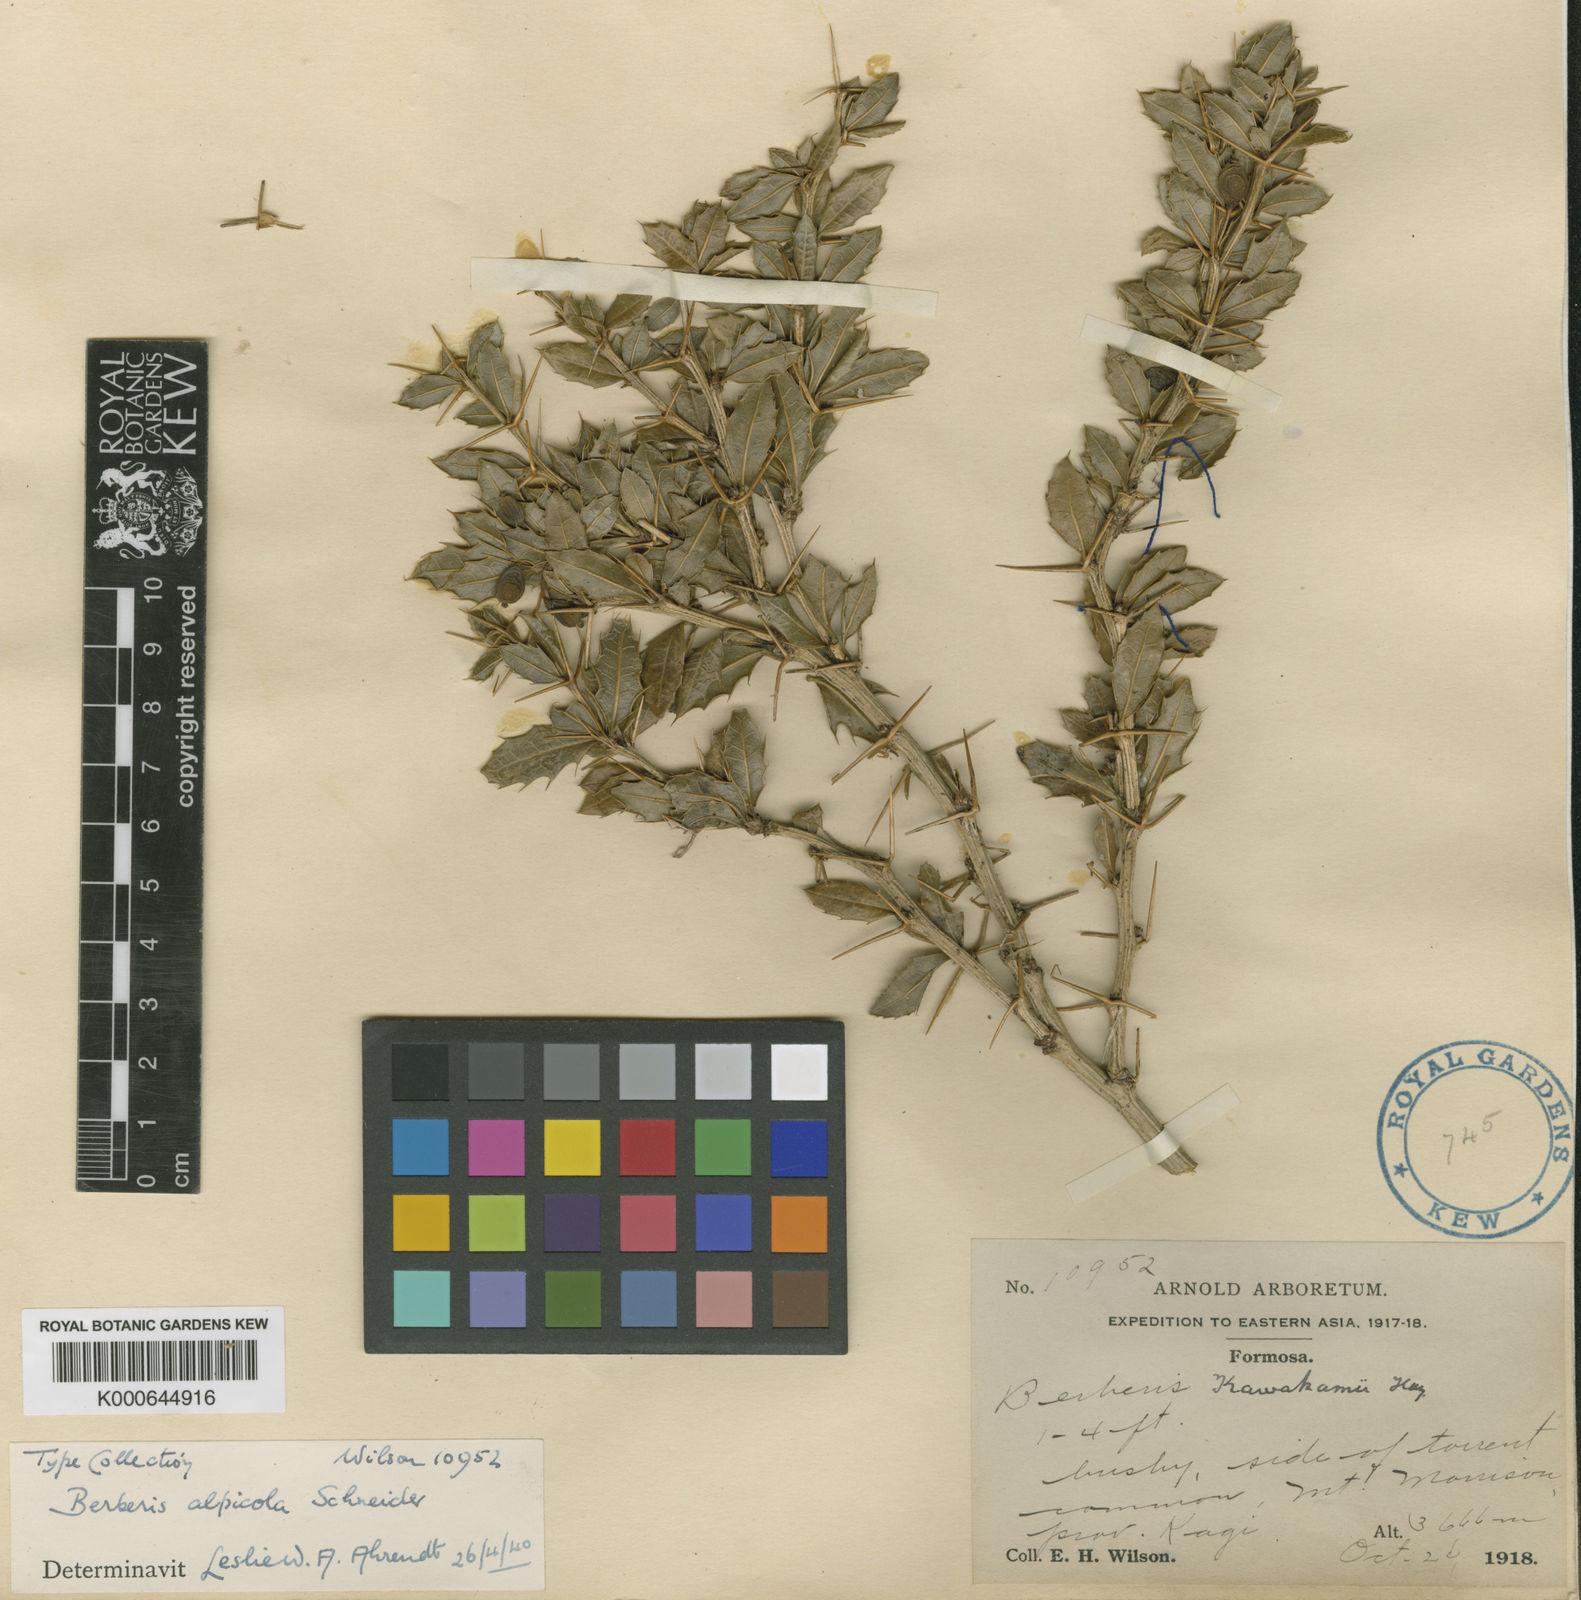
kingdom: Plantae
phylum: Tracheophyta
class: Magnoliopsida
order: Ranunculales
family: Berberidaceae
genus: Berberis
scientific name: Berberis alpicola
